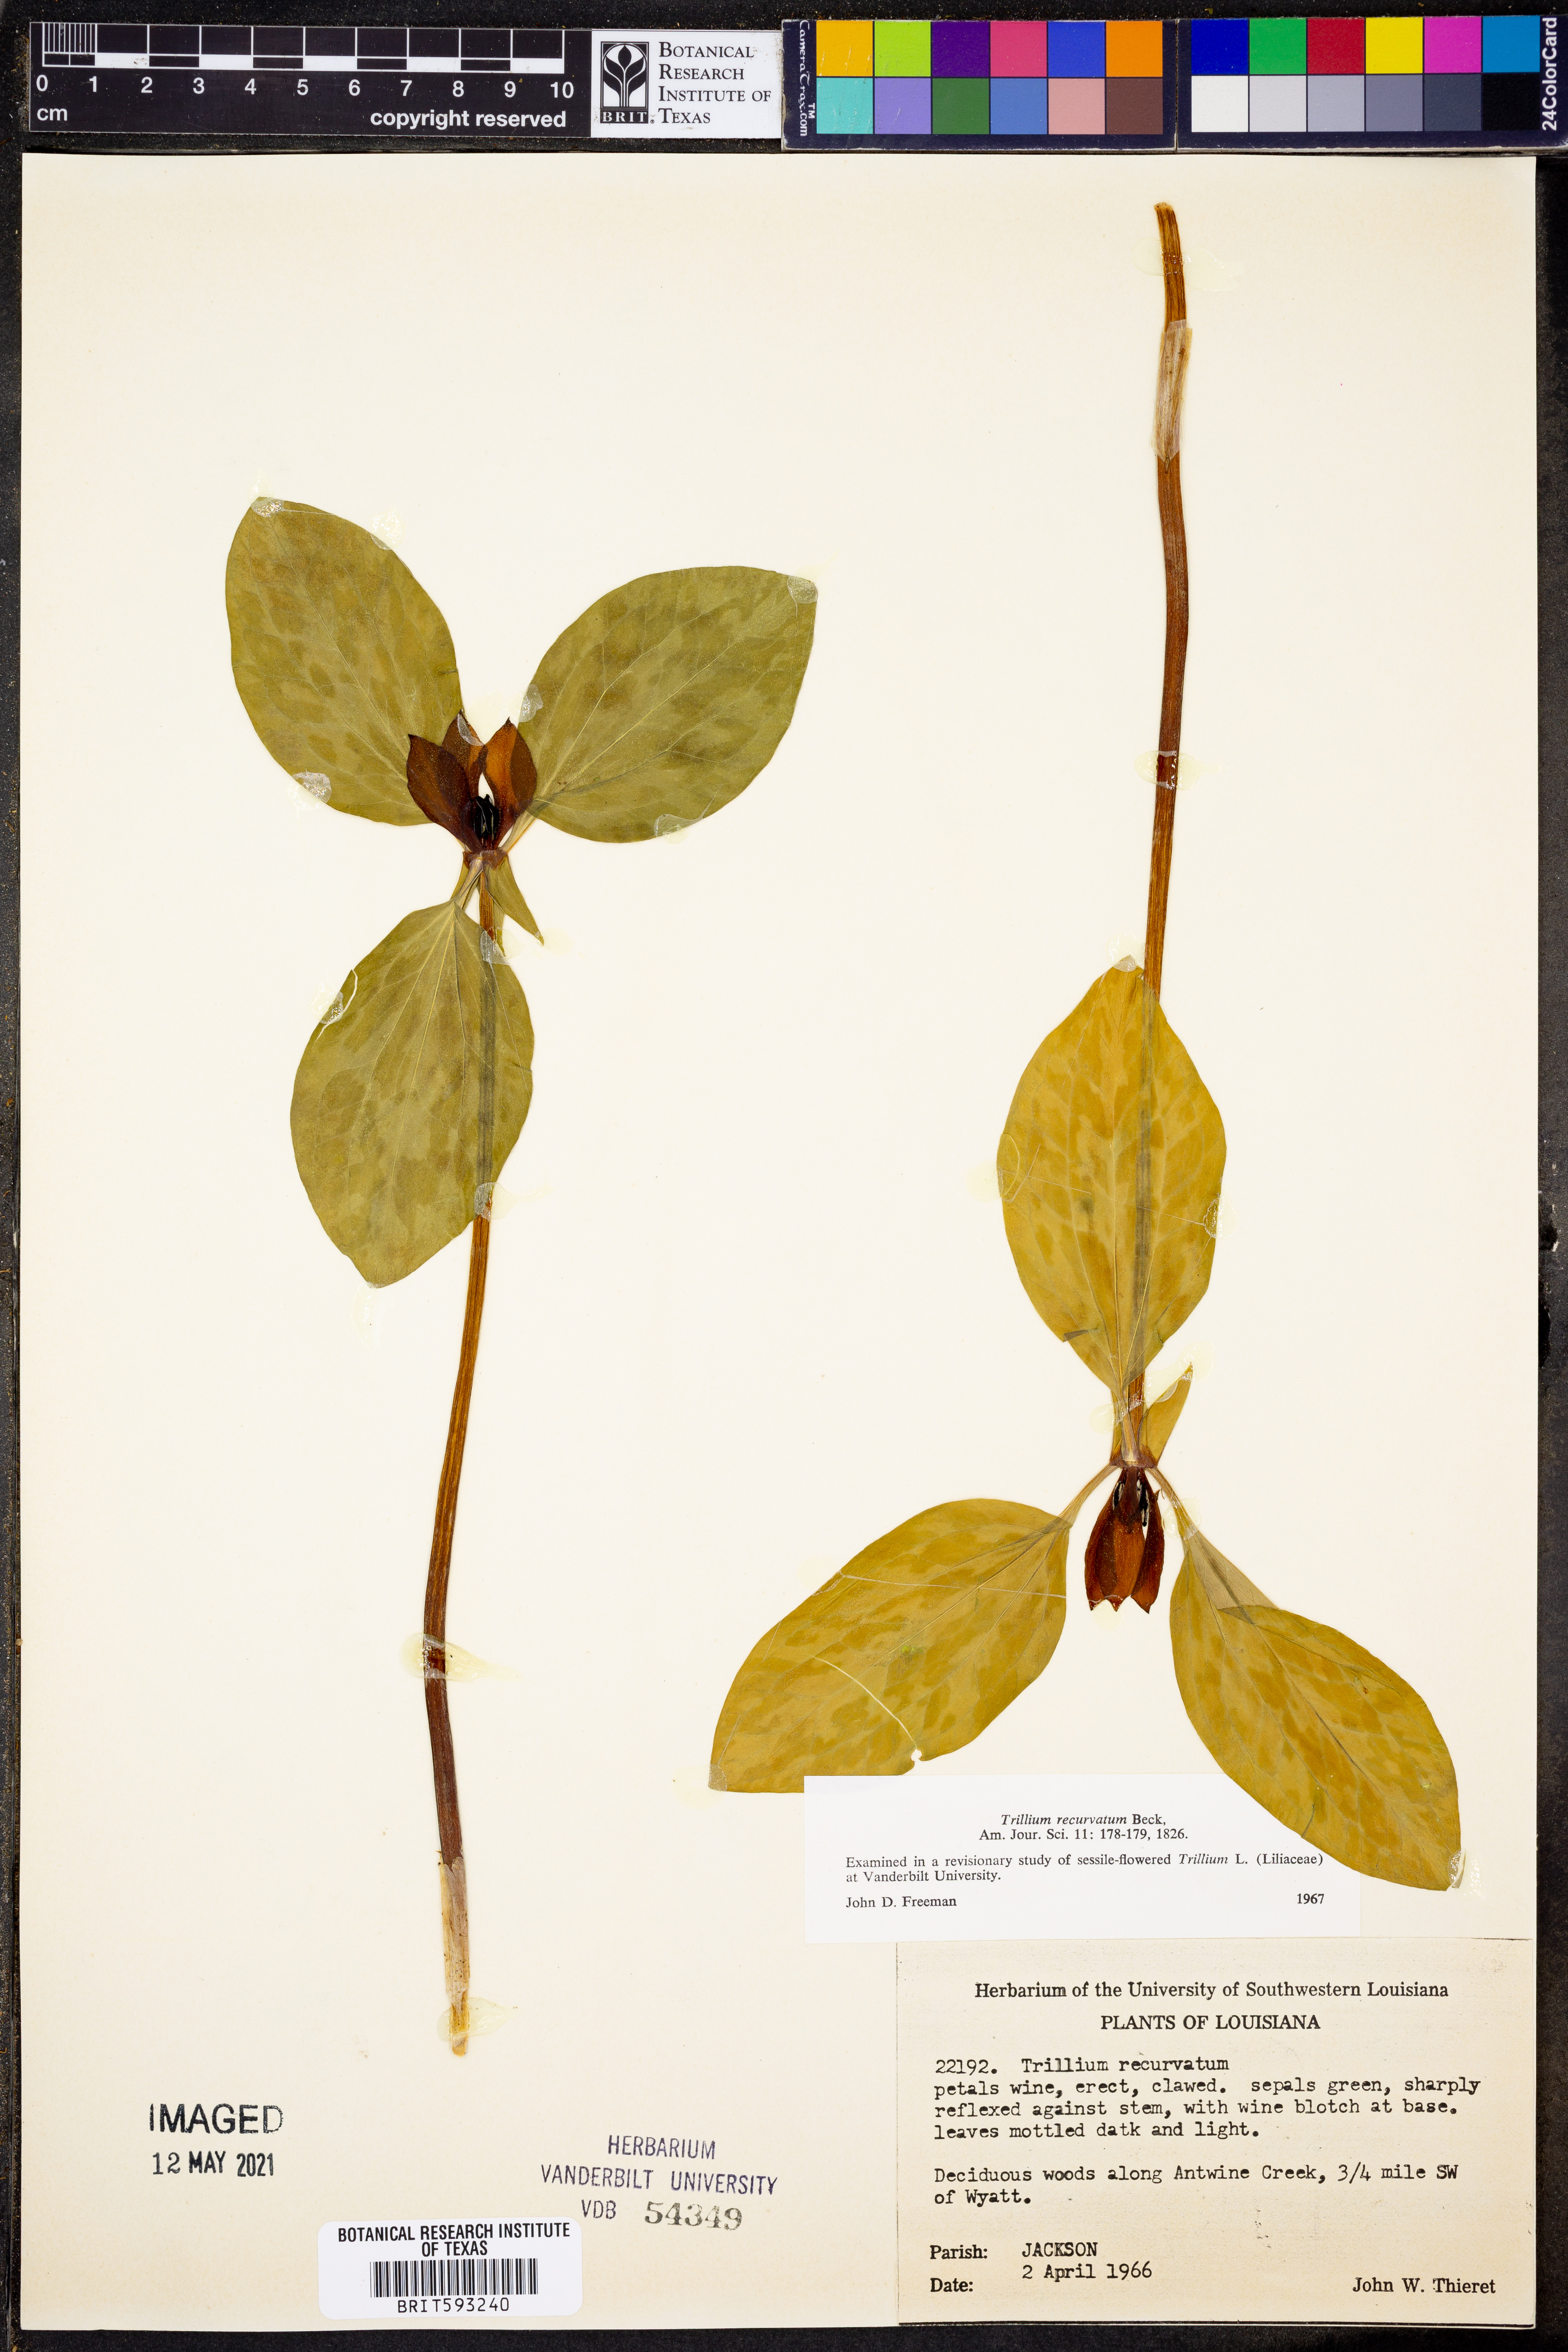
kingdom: Plantae
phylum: Tracheophyta
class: Liliopsida
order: Liliales
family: Melanthiaceae
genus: Trillium
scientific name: Trillium recurvatum
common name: Bloody butcher
